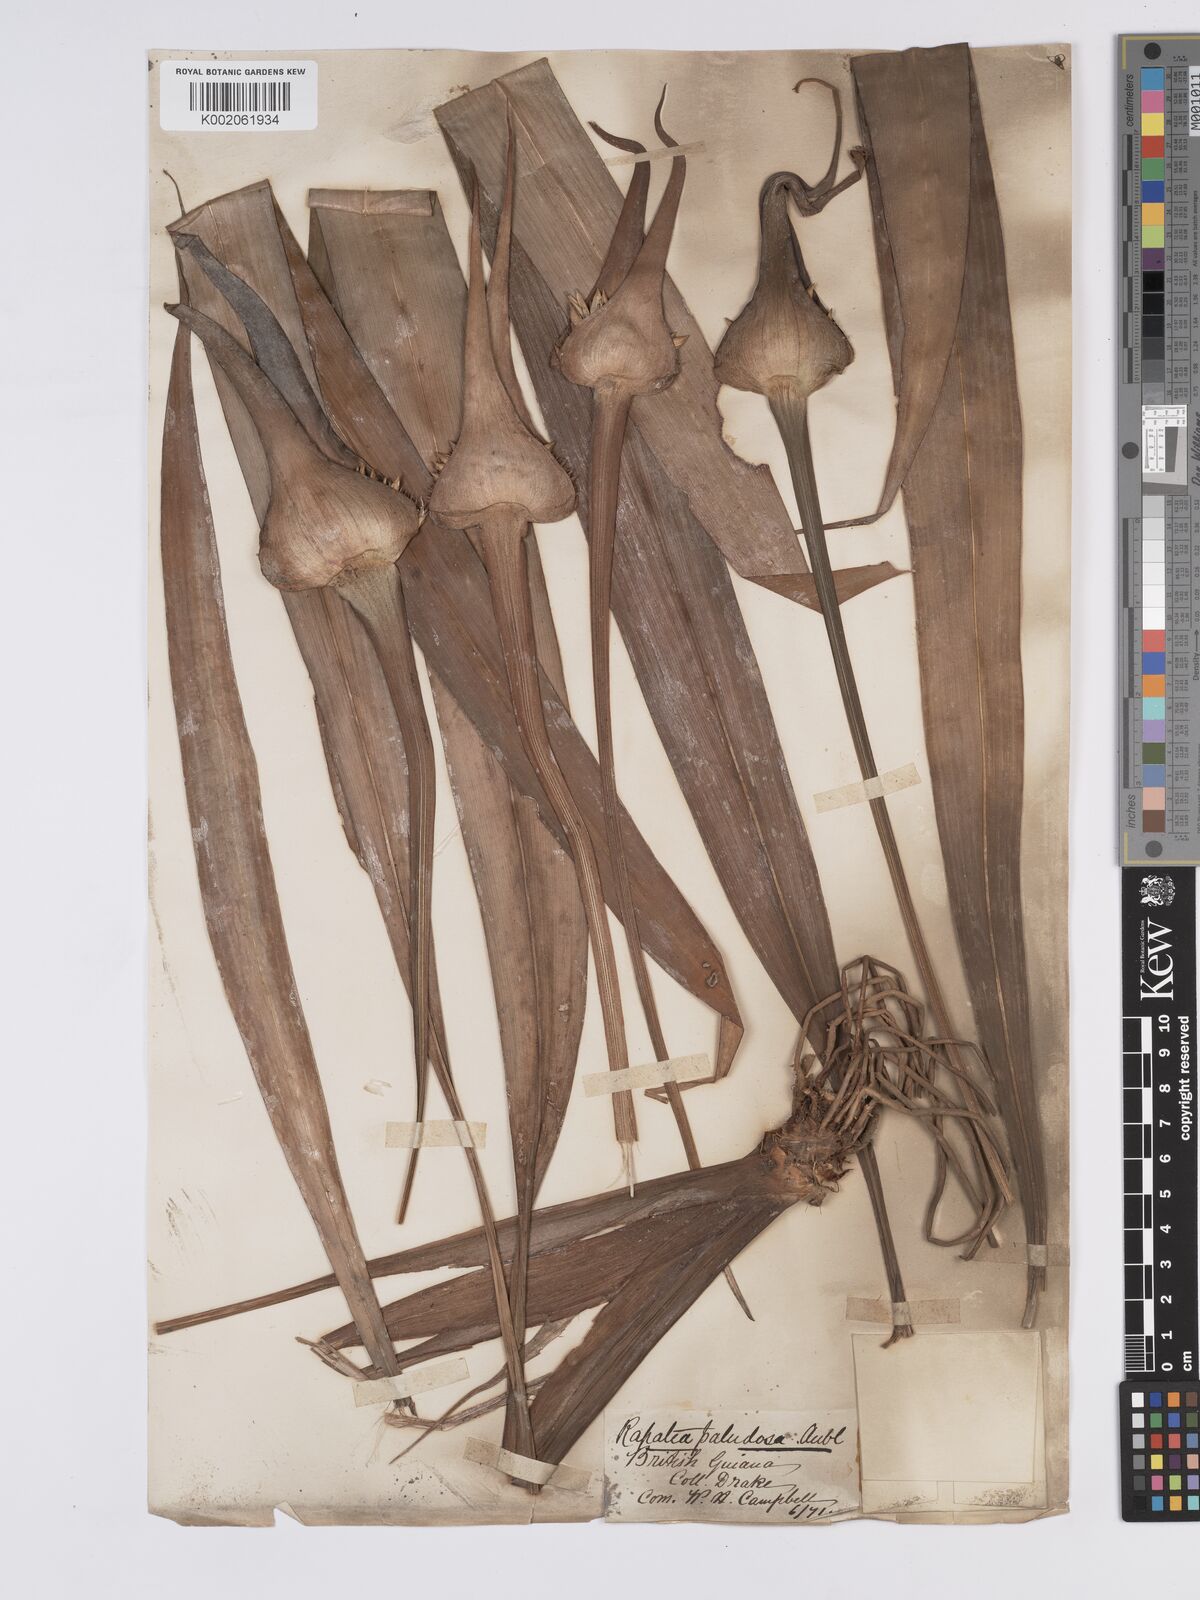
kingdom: Plantae
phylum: Tracheophyta
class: Liliopsida
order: Poales
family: Rapateaceae
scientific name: Rapateaceae
